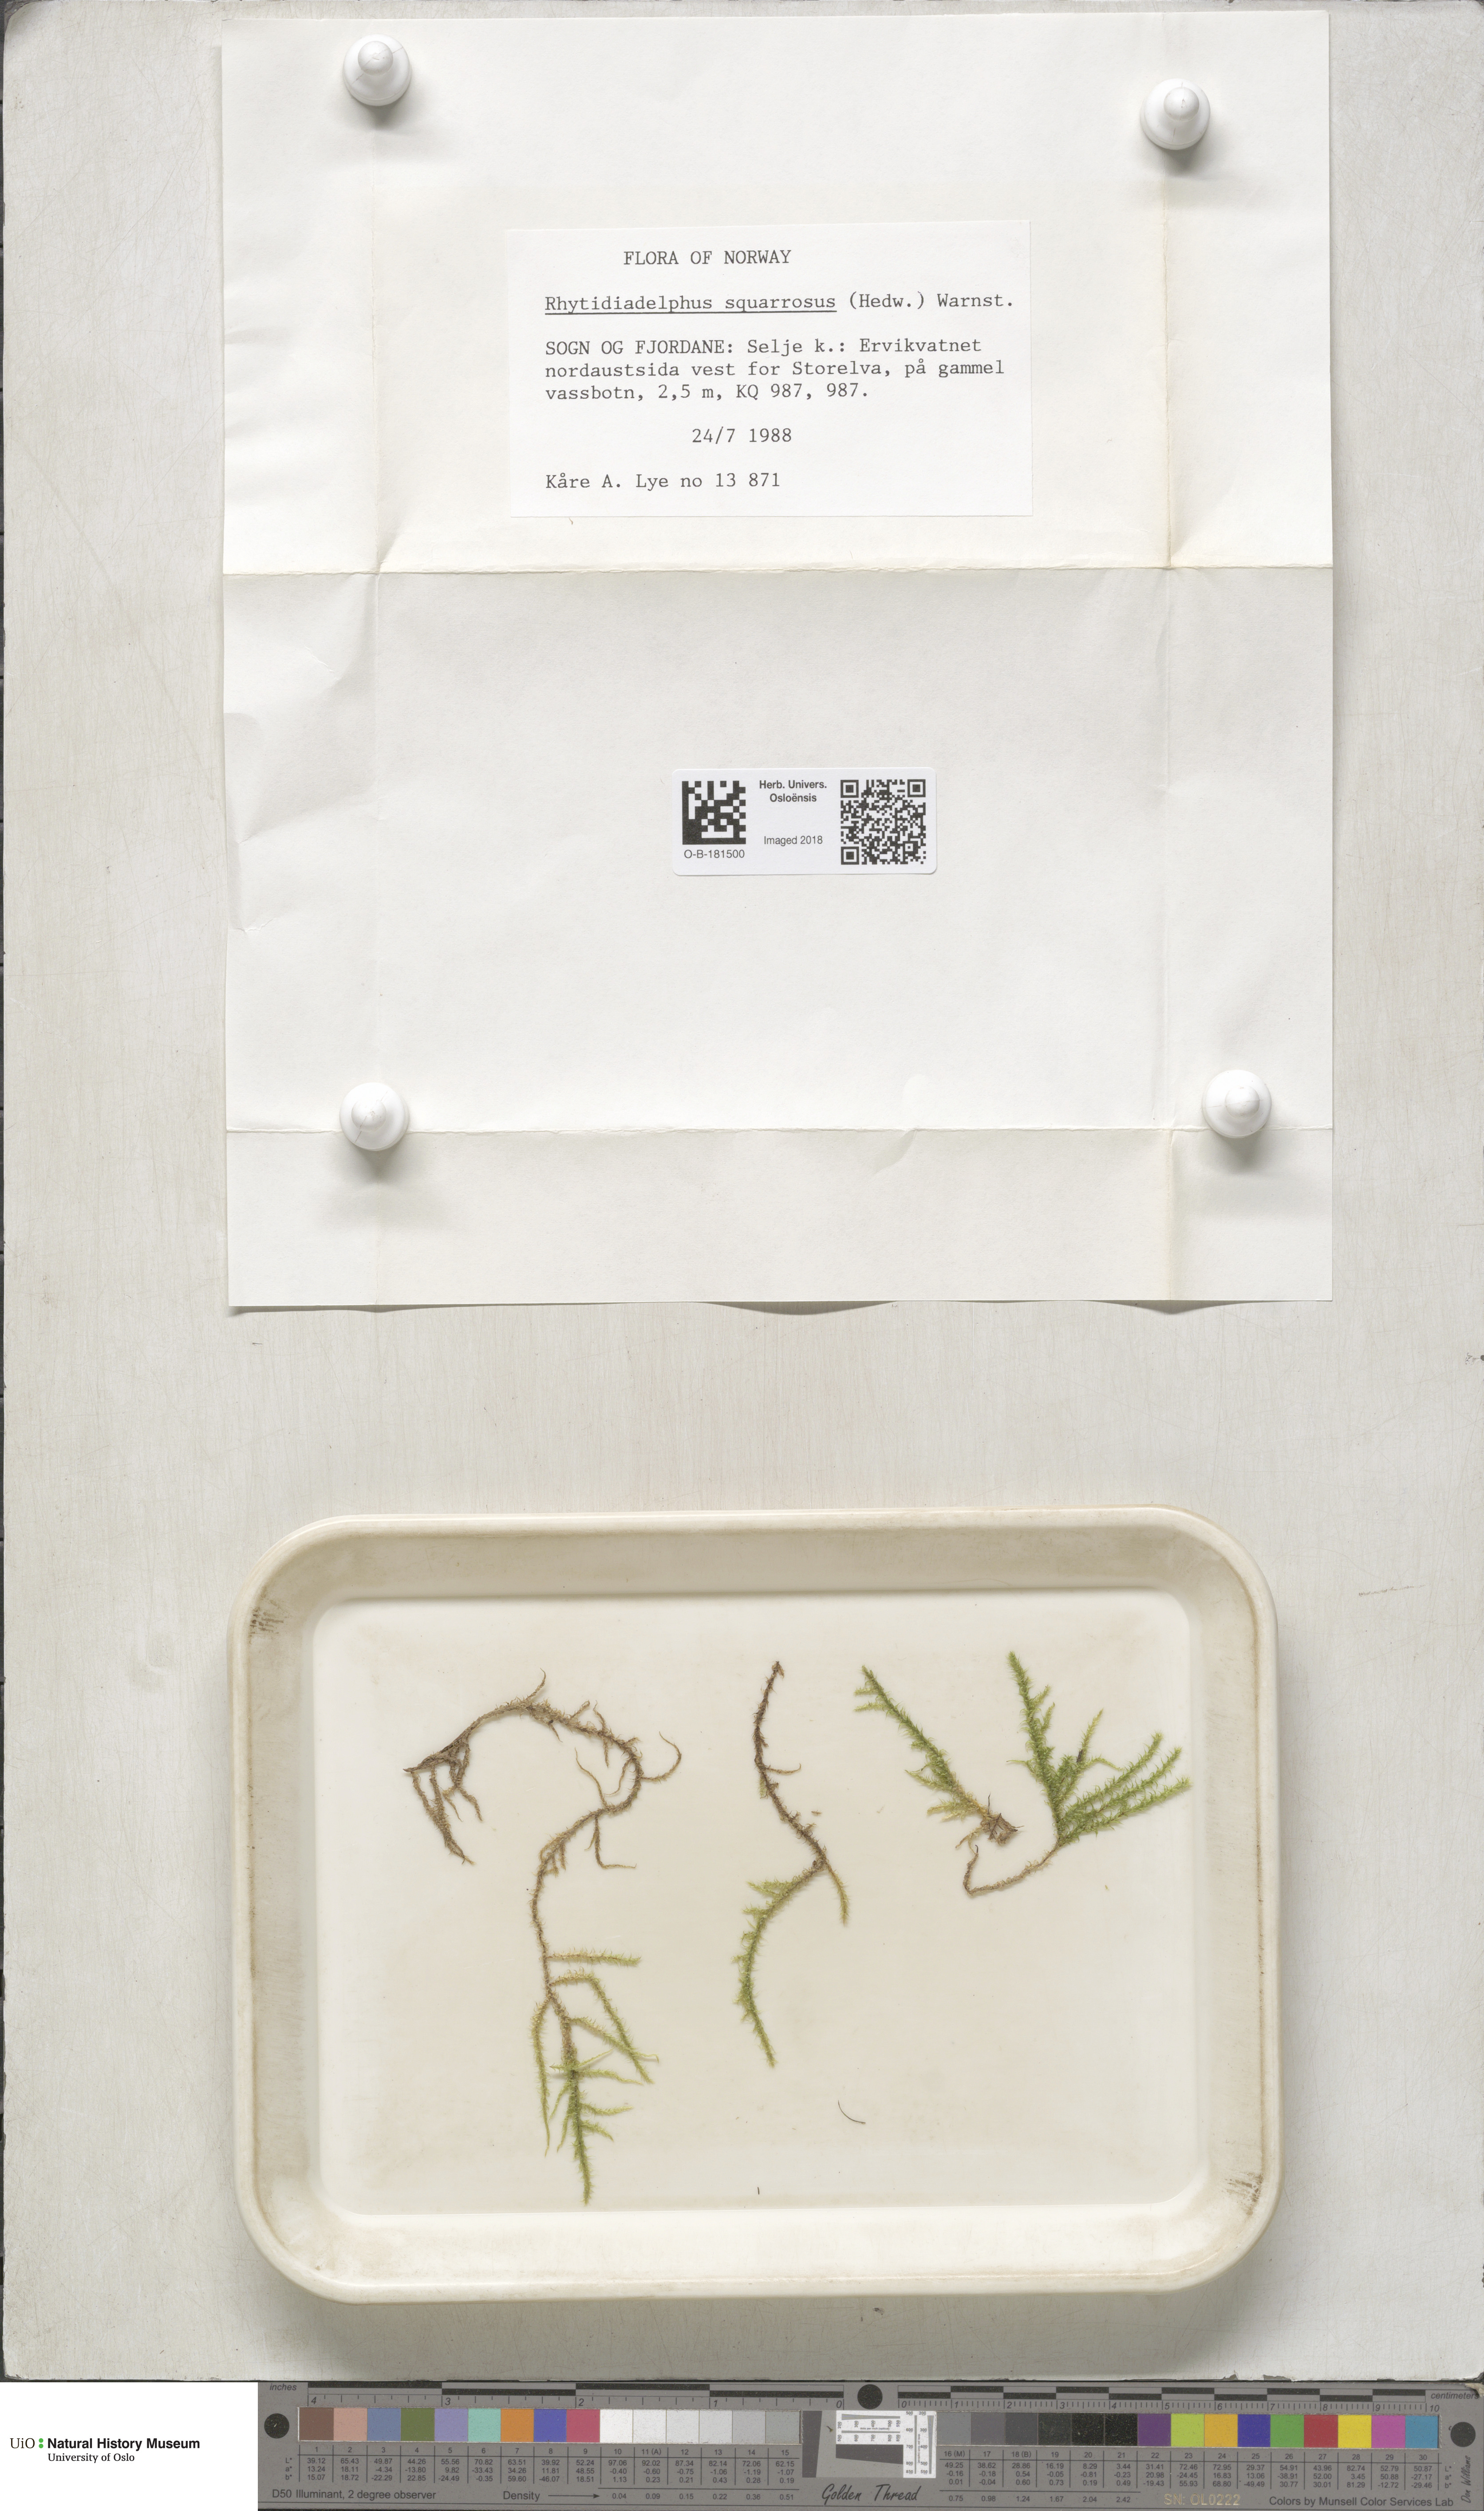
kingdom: Plantae
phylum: Bryophyta
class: Bryopsida
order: Hypnales
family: Hylocomiaceae
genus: Rhytidiadelphus
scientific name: Rhytidiadelphus squarrosus
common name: Springy turf-moss
